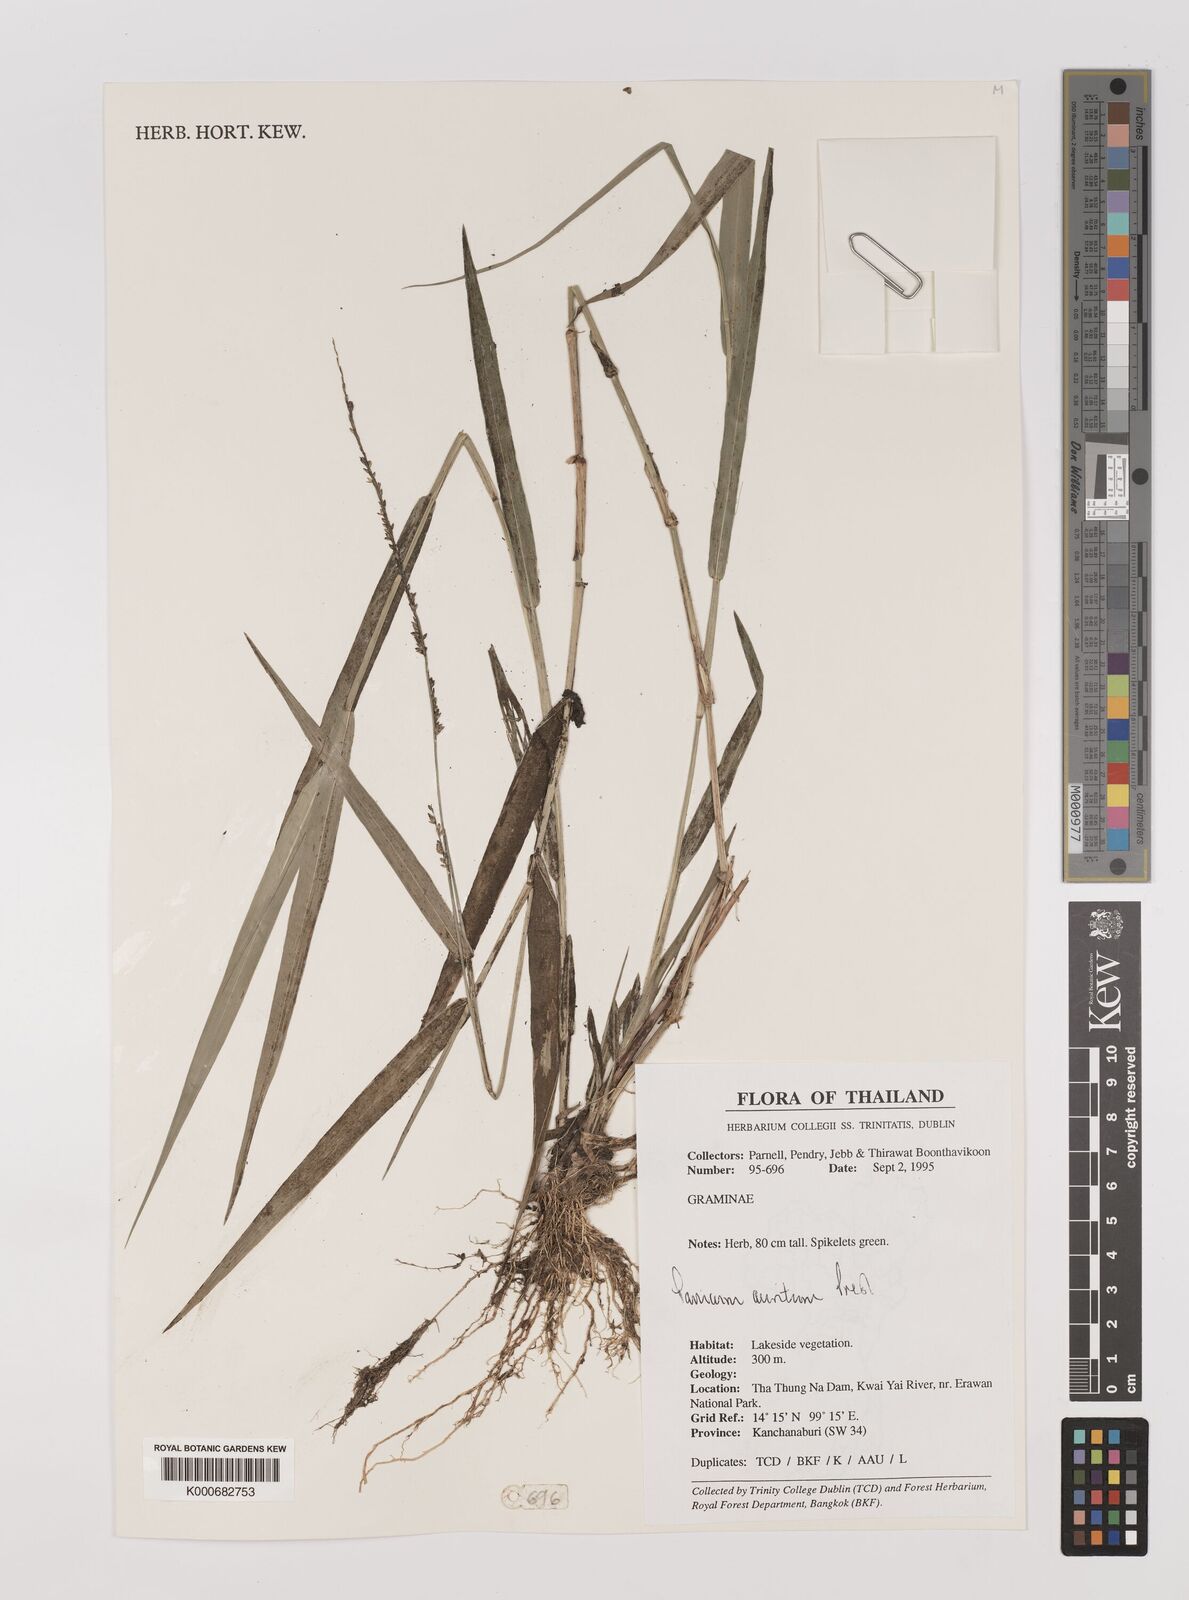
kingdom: Plantae
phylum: Tracheophyta
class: Liliopsida
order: Poales
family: Poaceae
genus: Hymenachne
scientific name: Hymenachne aurita
